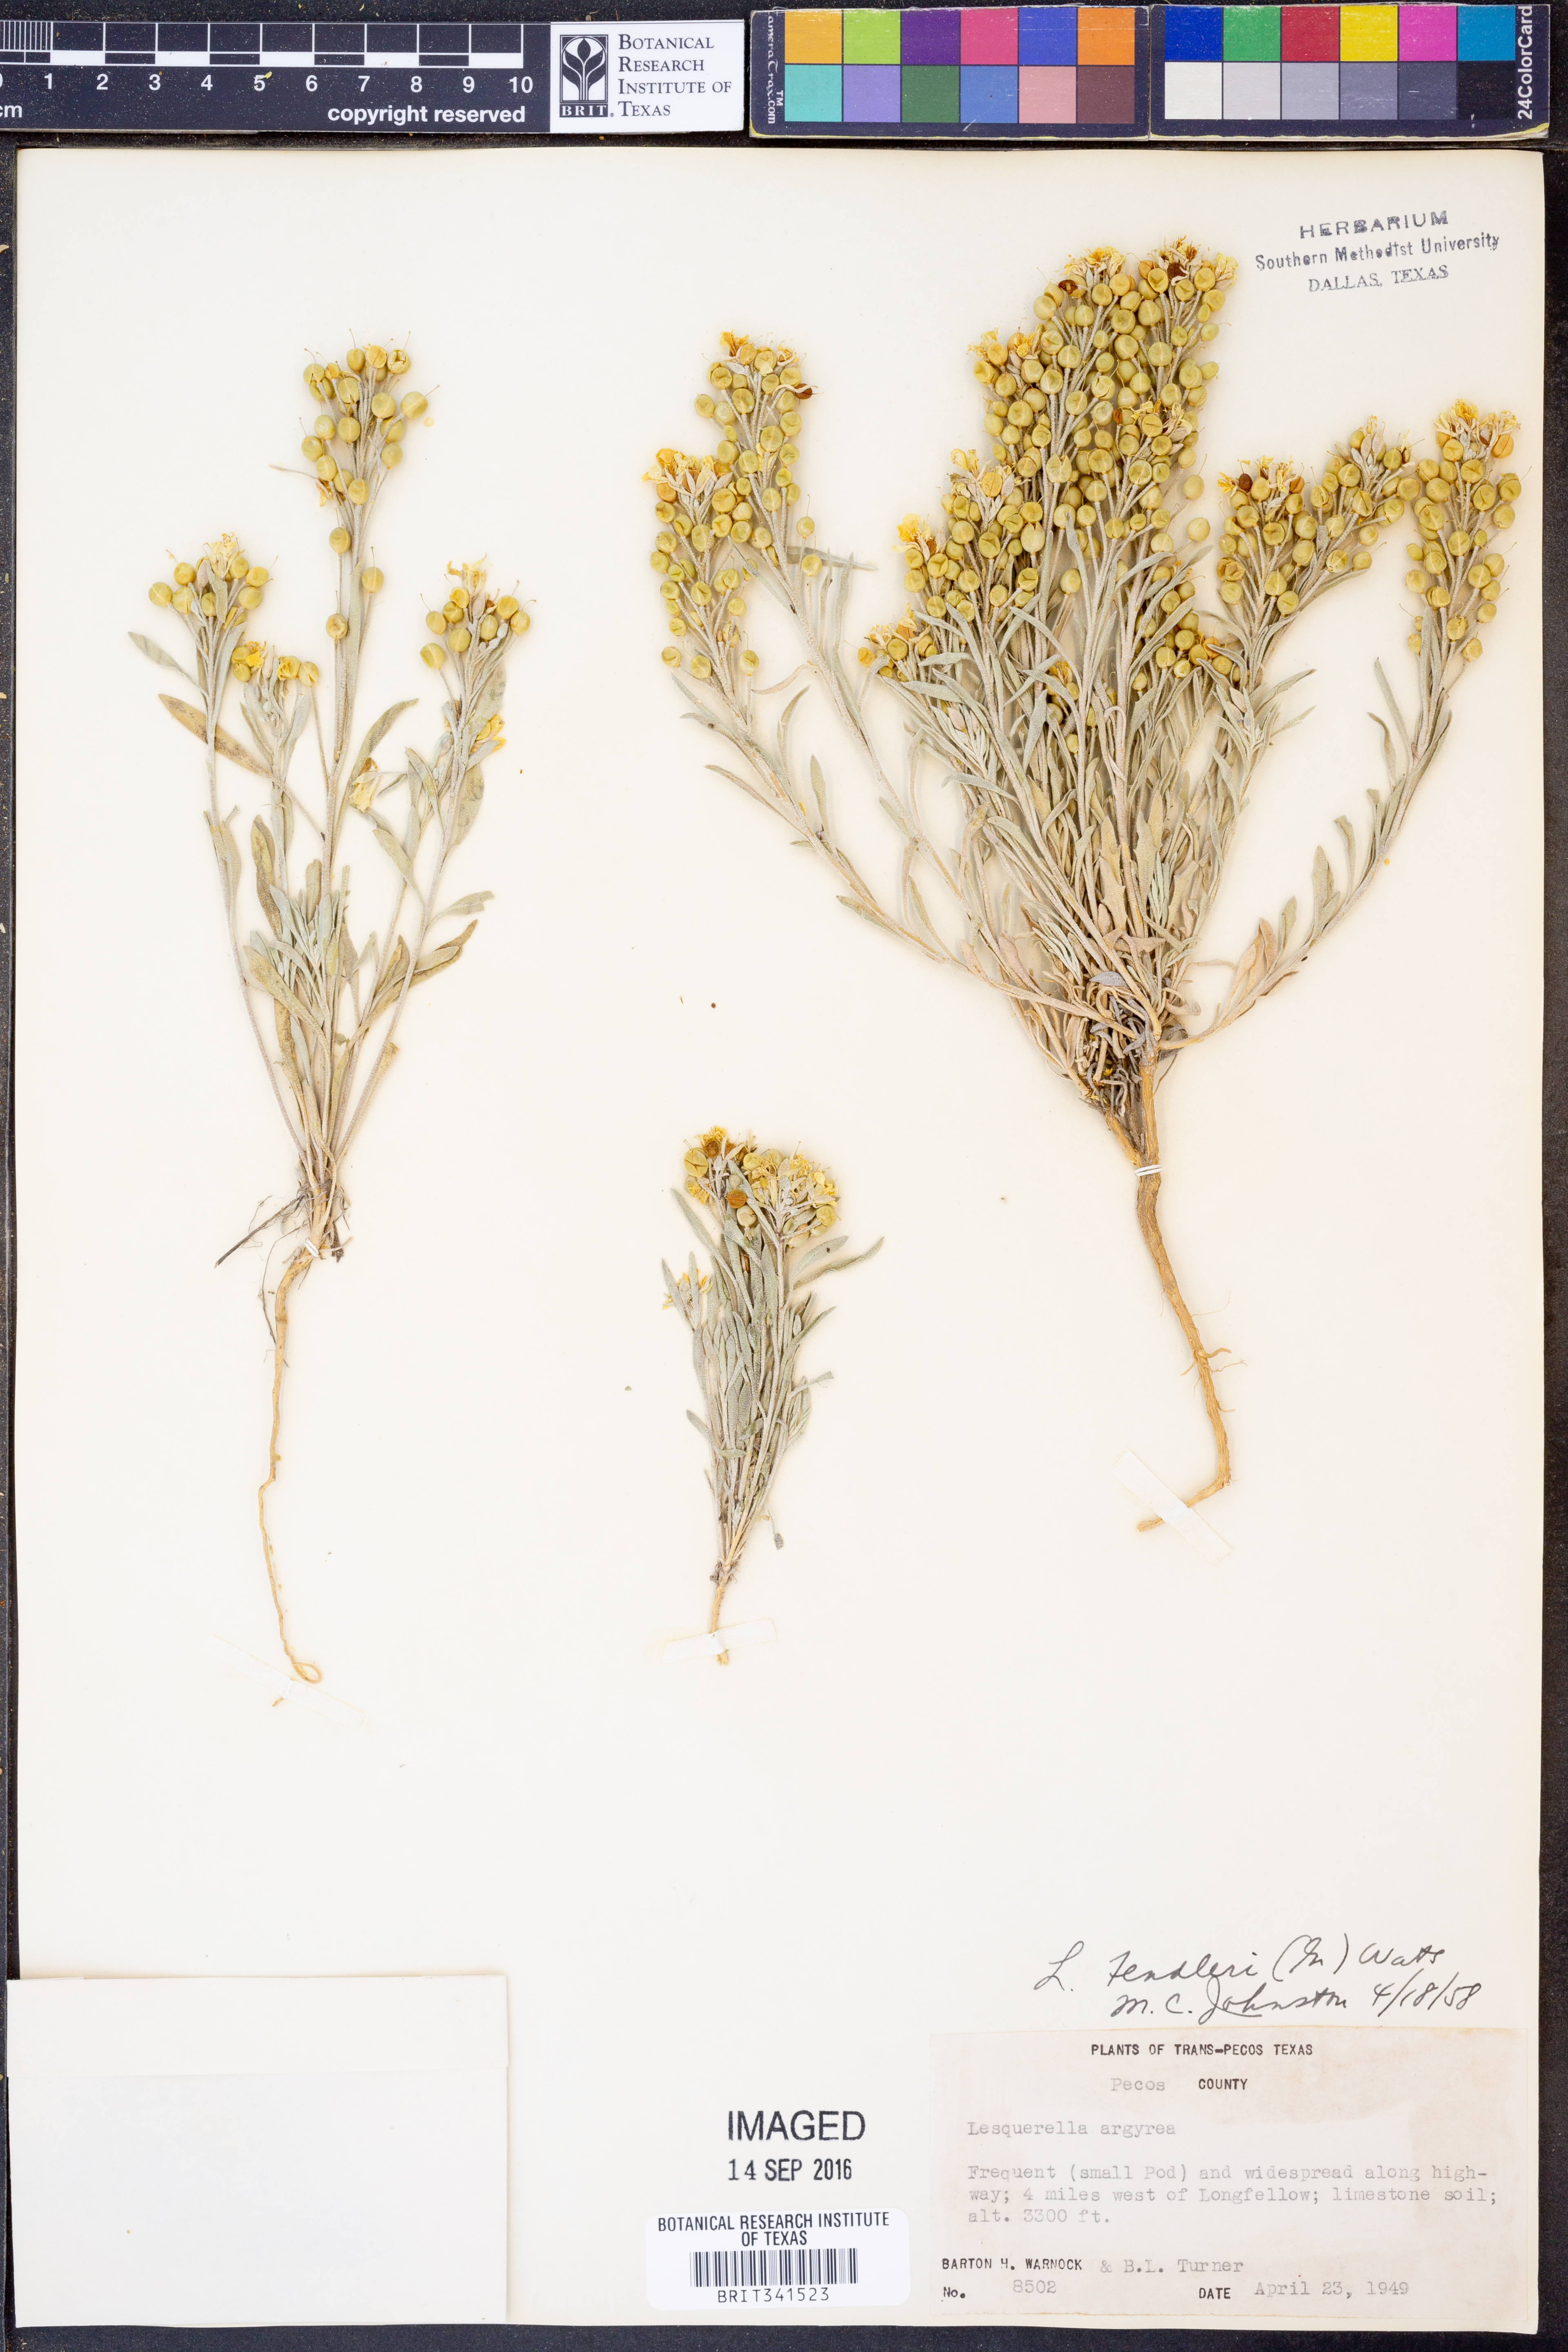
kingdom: Plantae
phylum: Tracheophyta
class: Magnoliopsida
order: Brassicales
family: Brassicaceae
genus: Physaria
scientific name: Physaria fendleri
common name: Fendler's bladderpod
